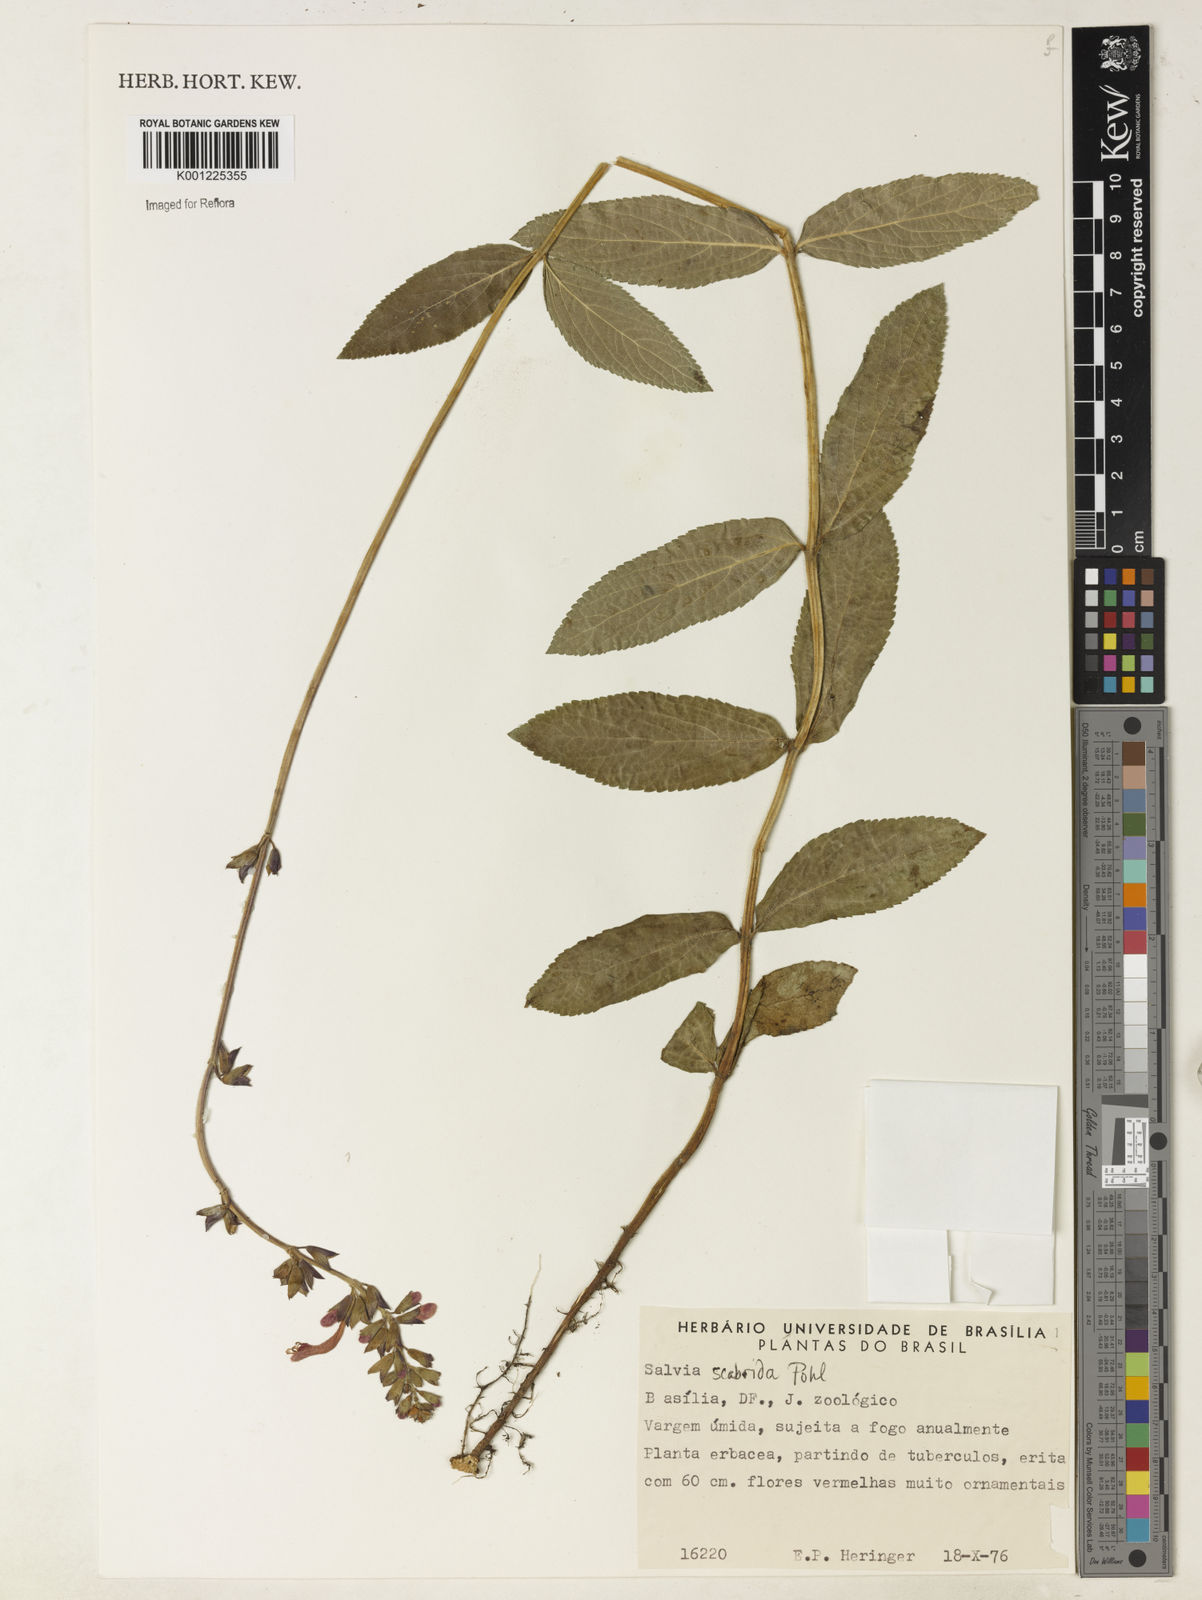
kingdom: Plantae
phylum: Tracheophyta
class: Magnoliopsida
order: Lamiales
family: Lamiaceae
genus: Salvia
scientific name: Salvia scabrida
